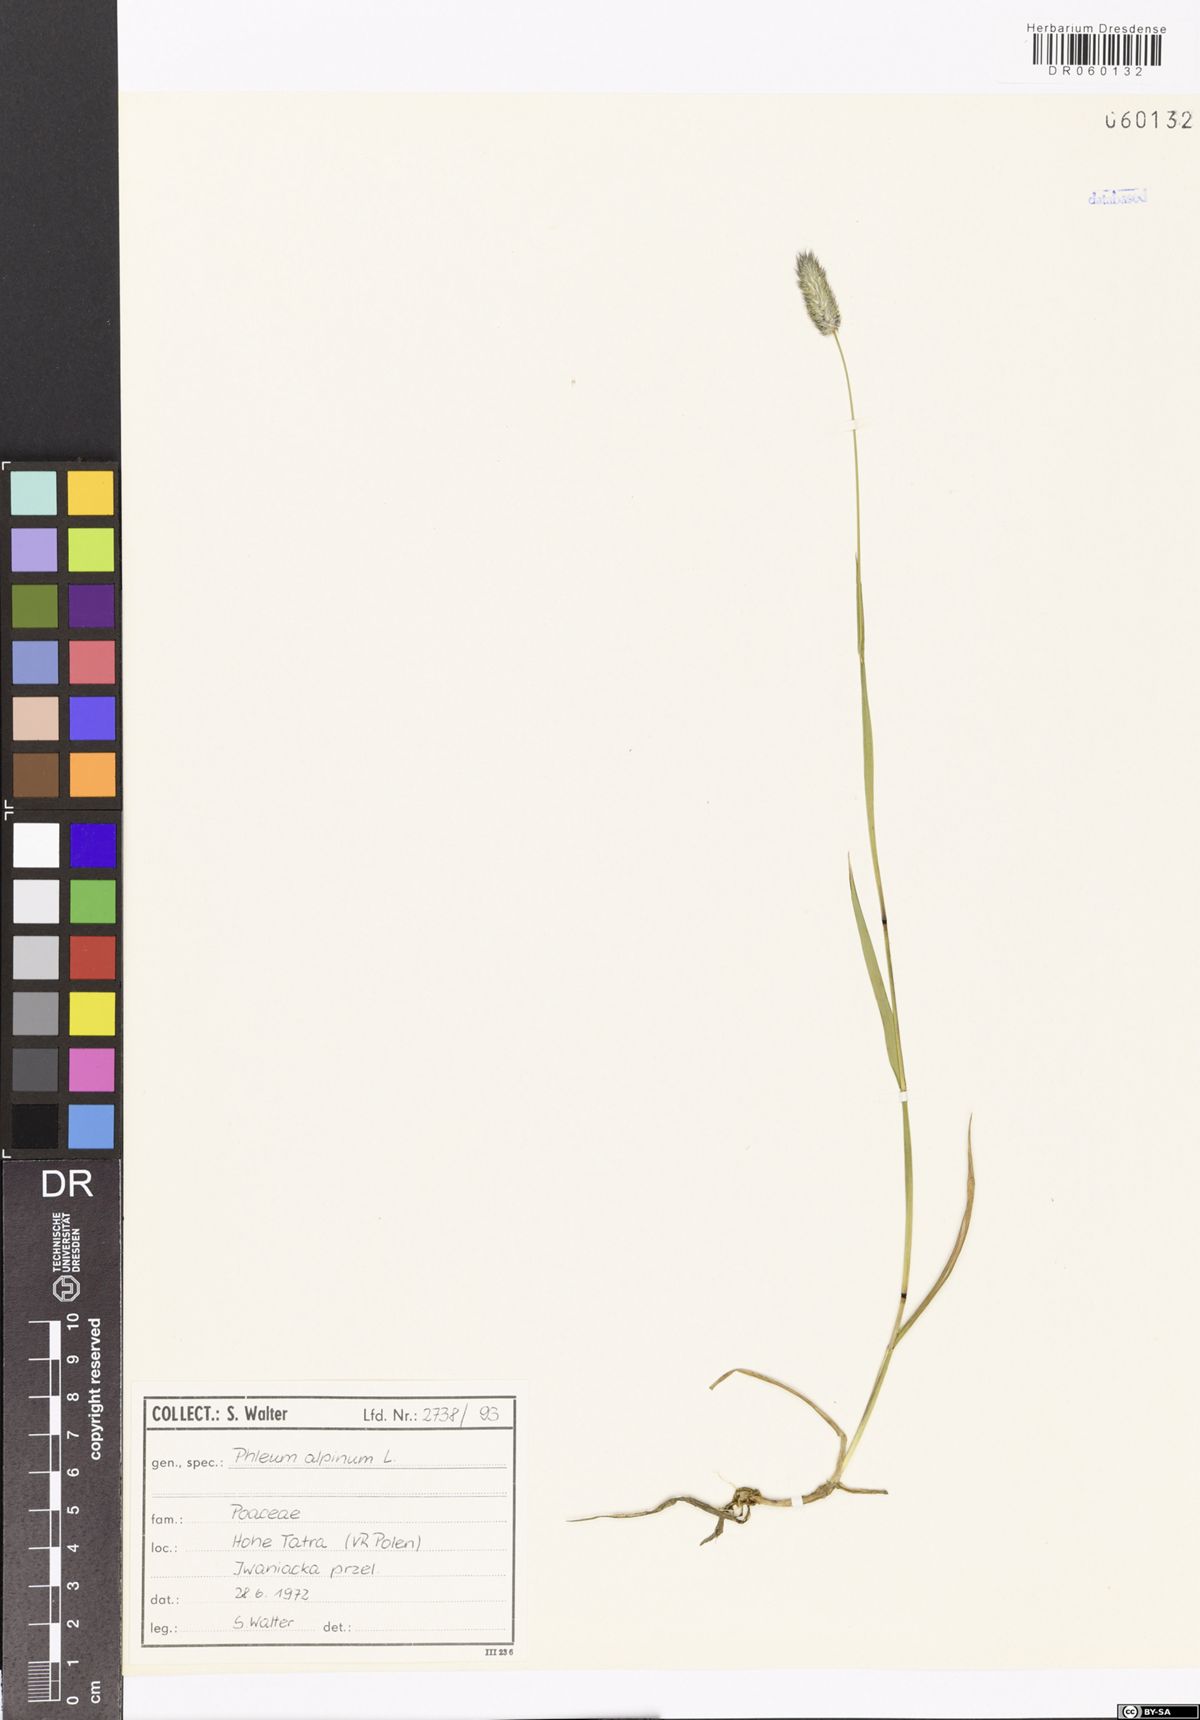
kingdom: Plantae
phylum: Tracheophyta
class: Liliopsida
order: Poales
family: Poaceae
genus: Phleum
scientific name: Phleum alpinum
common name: Alpine cat's-tail
